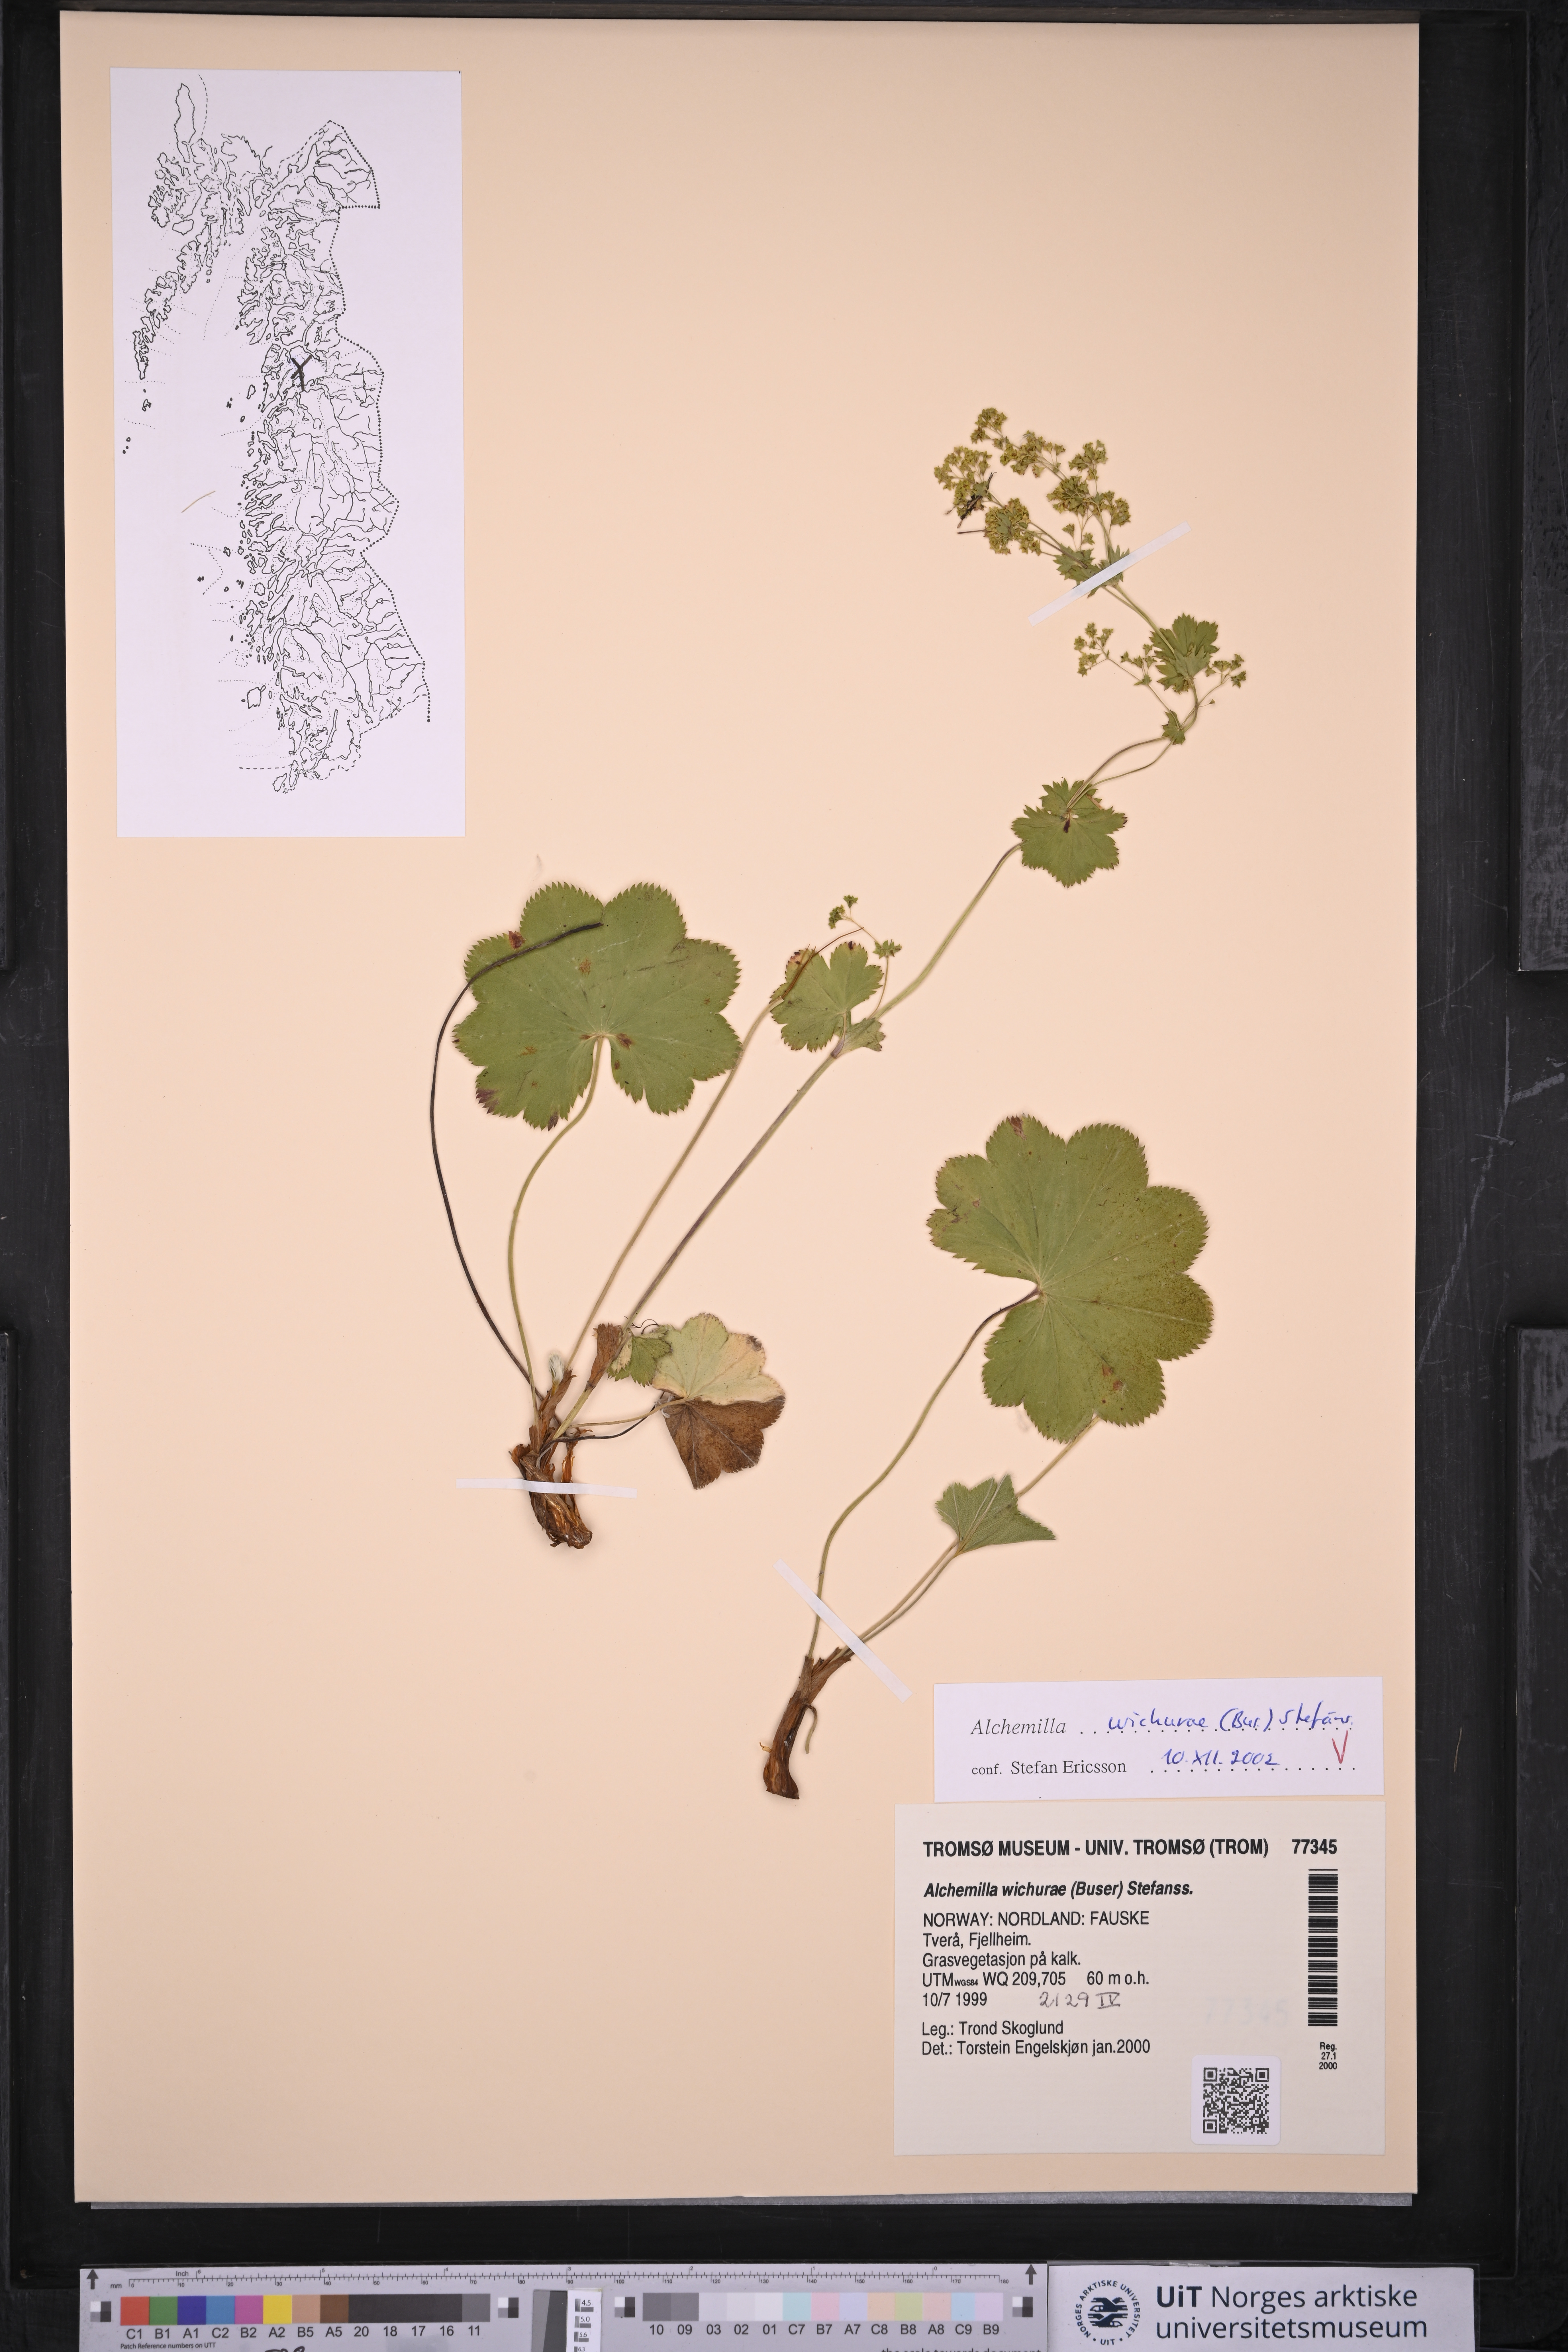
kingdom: Plantae
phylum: Tracheophyta
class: Magnoliopsida
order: Rosales
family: Rosaceae
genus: Alchemilla
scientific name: Alchemilla wichurae
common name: Rock lady's mantle
